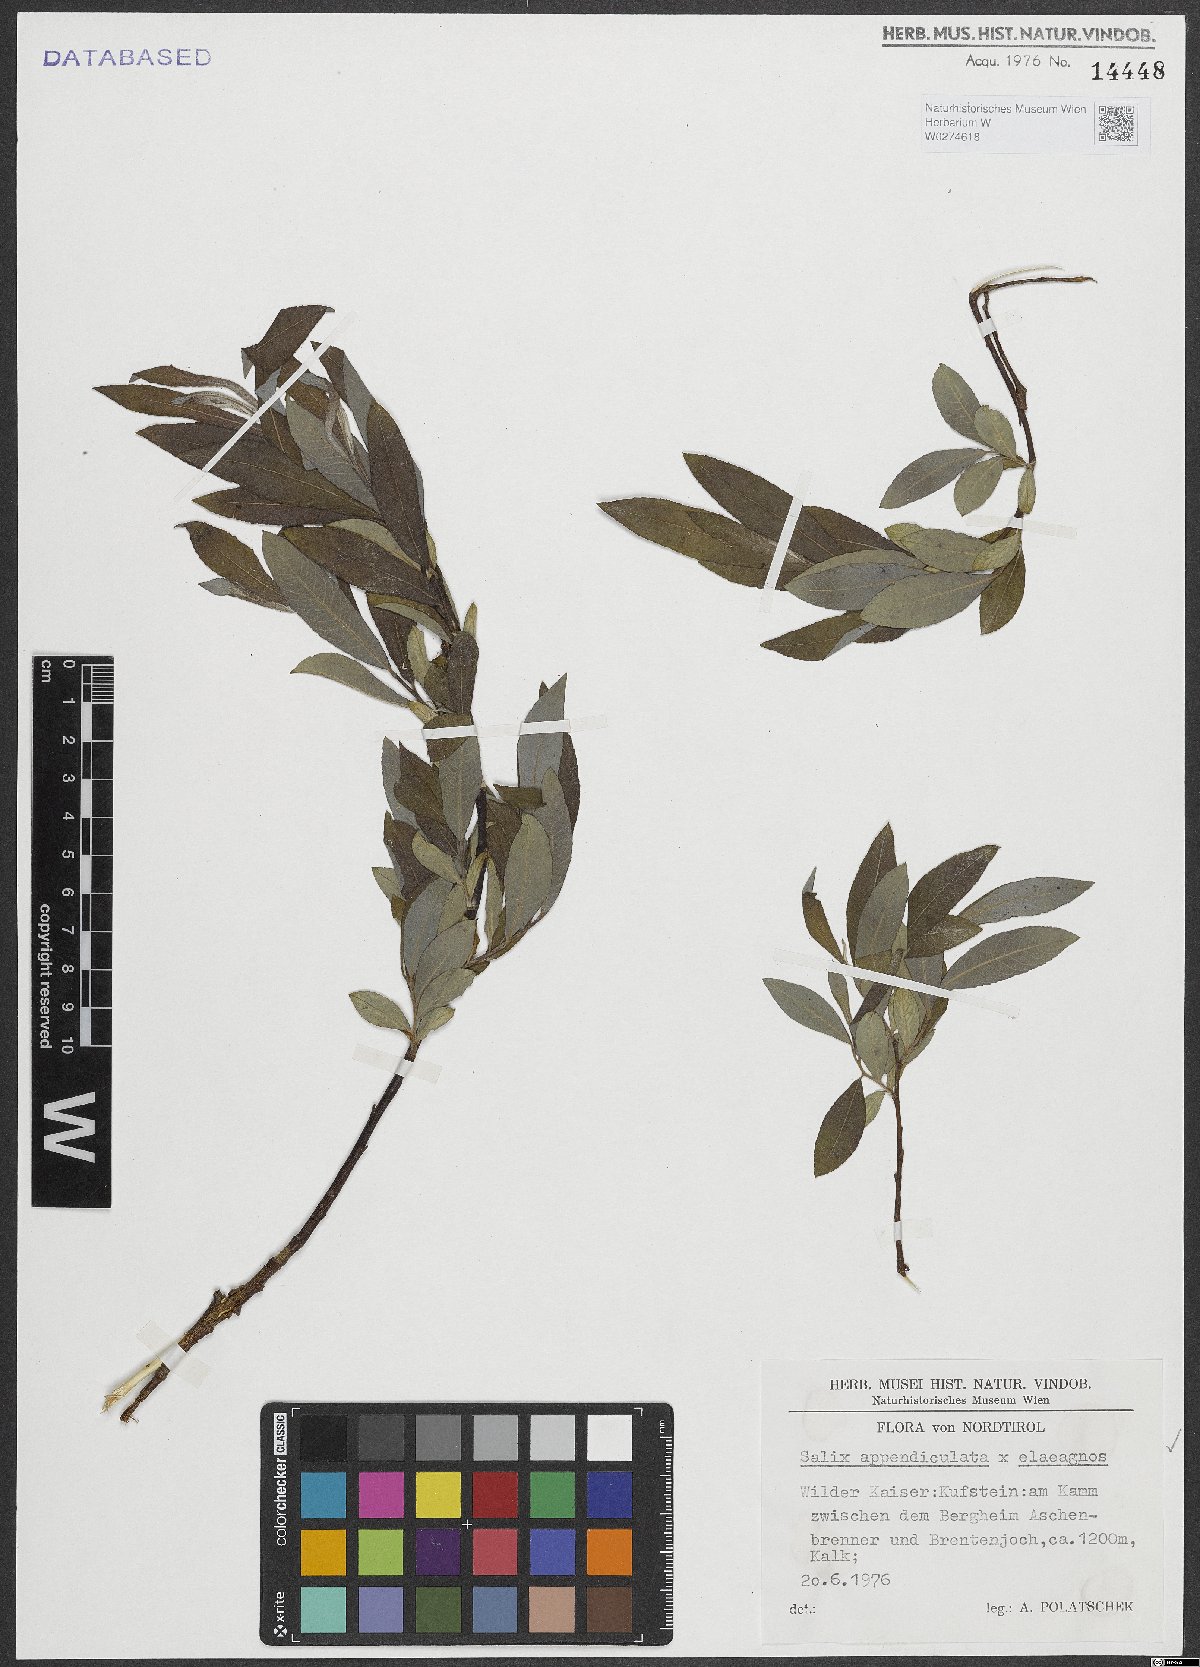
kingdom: Plantae
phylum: Tracheophyta
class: Magnoliopsida
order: Malpighiales
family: Salicaceae
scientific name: Salicaceae
